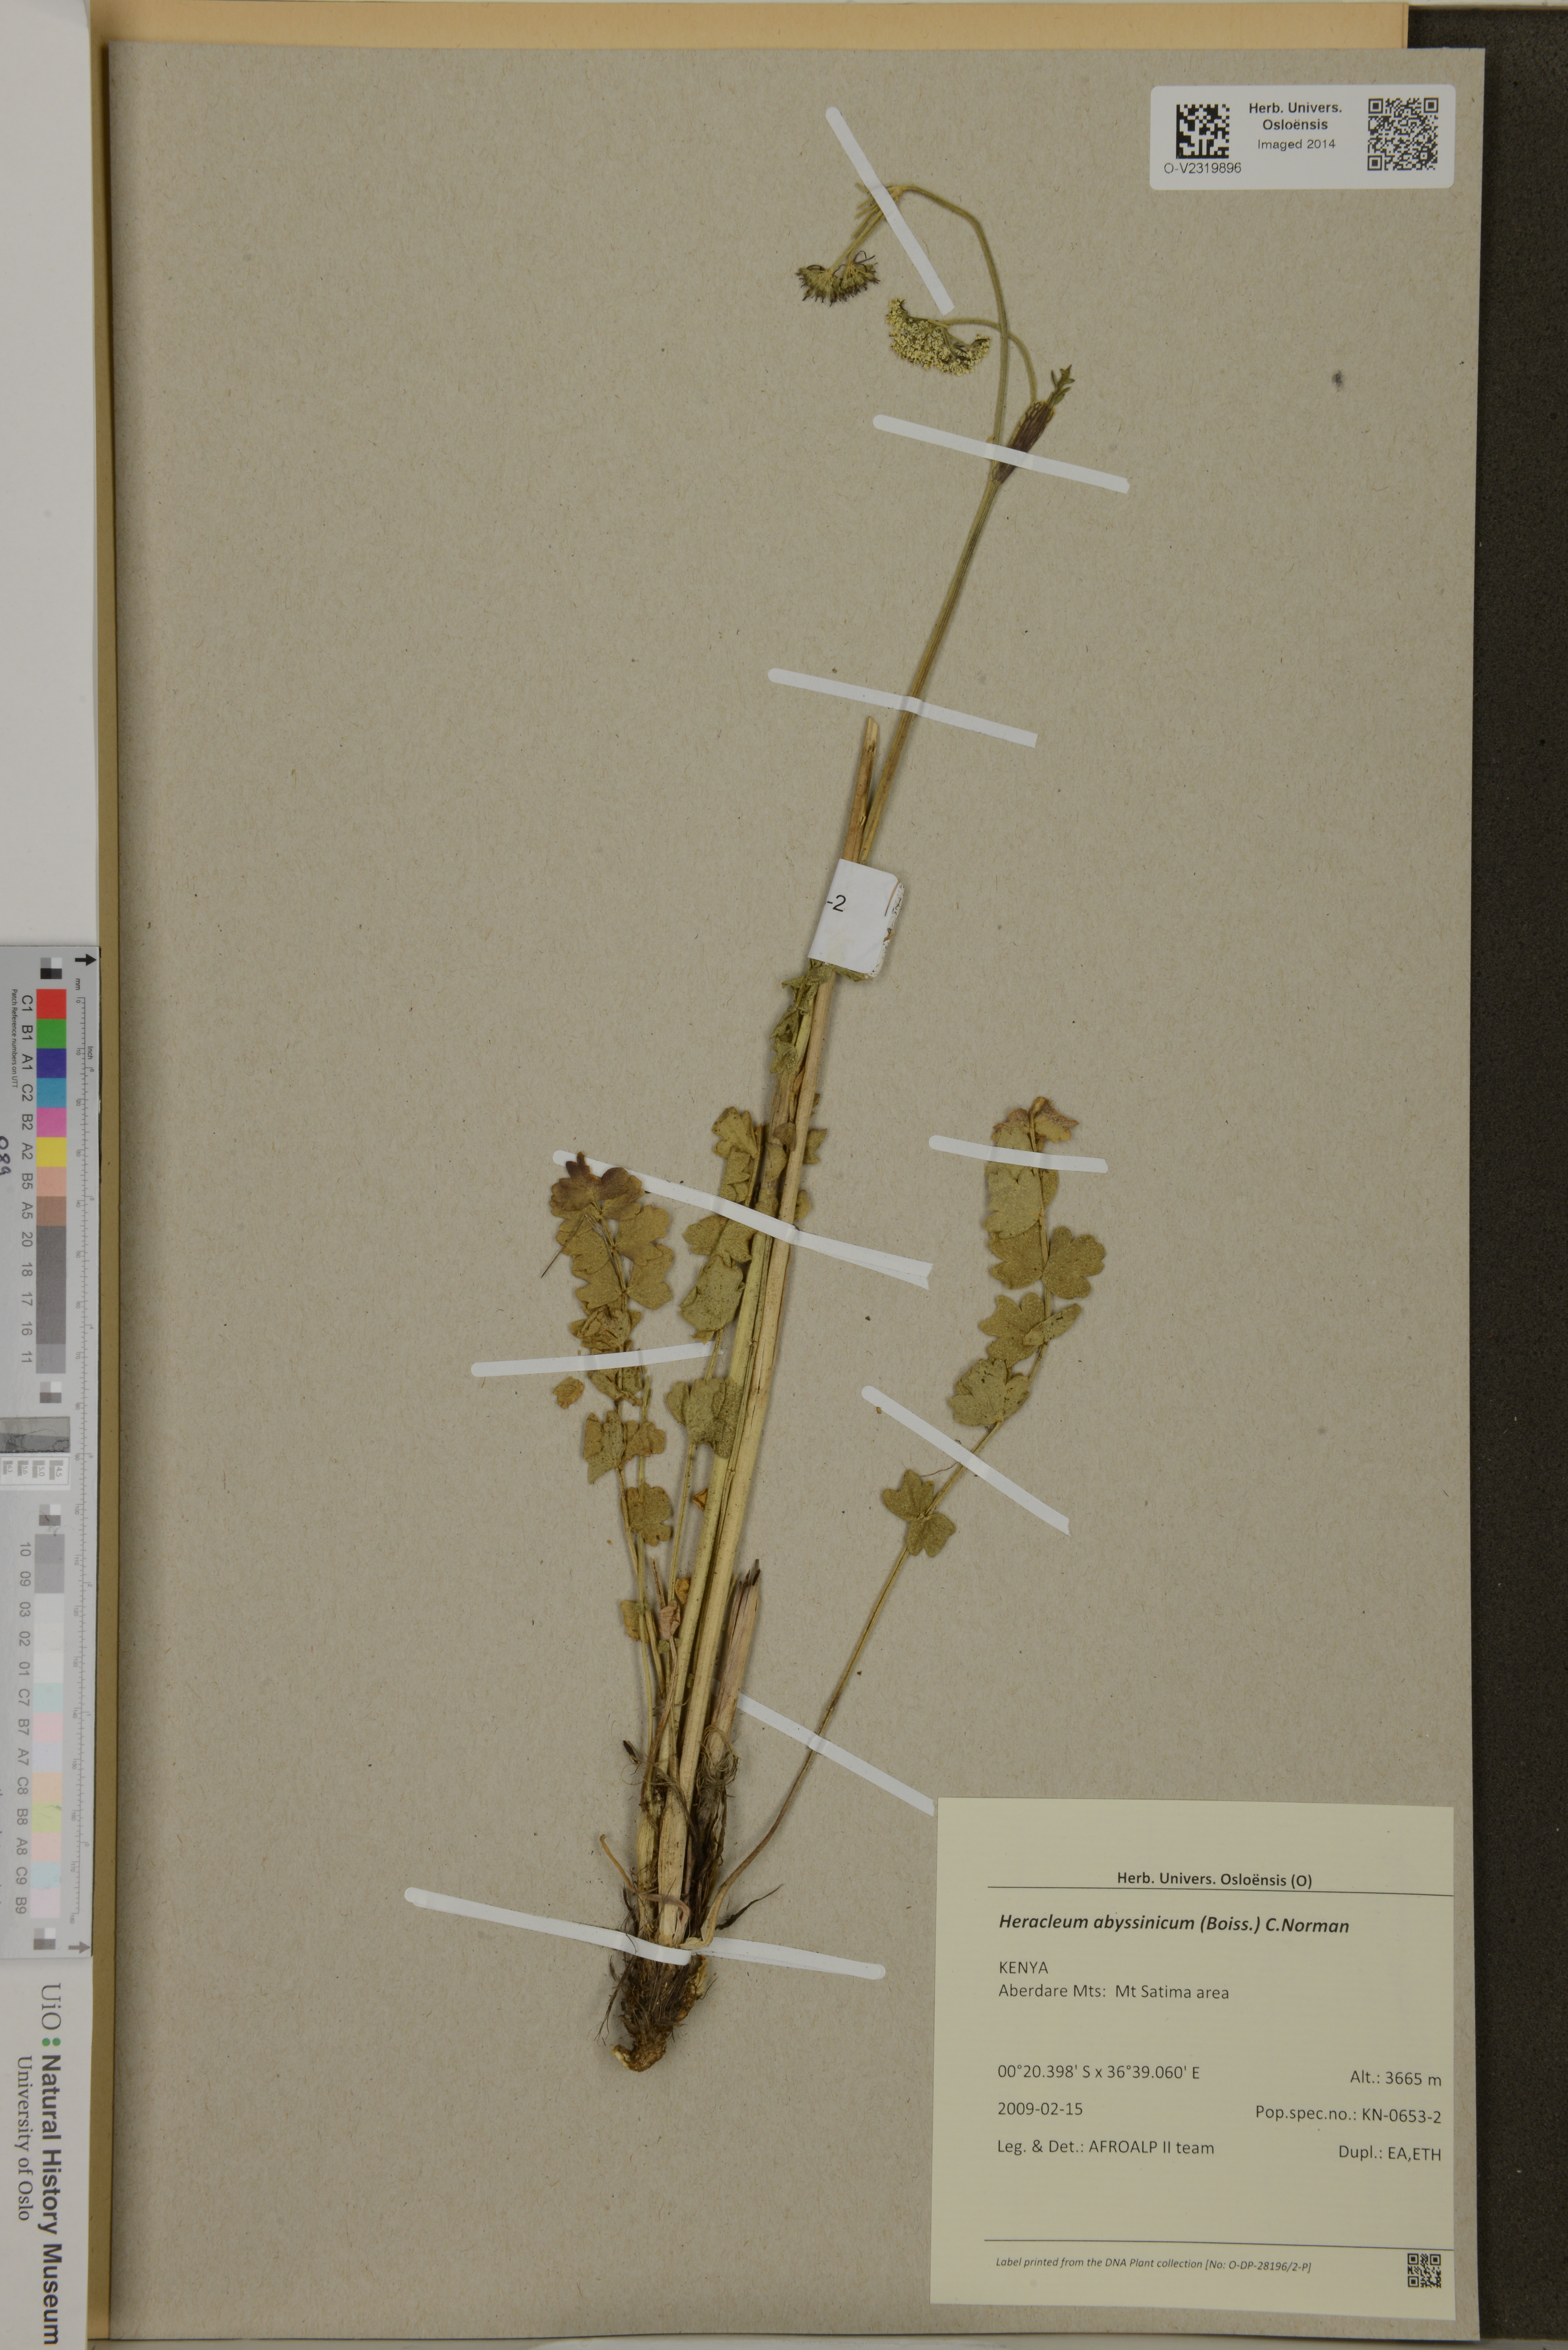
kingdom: Plantae
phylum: Tracheophyta
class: Magnoliopsida
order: Apiales
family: Apiaceae
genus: Heracleum
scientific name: Heracleum abyssinicum
